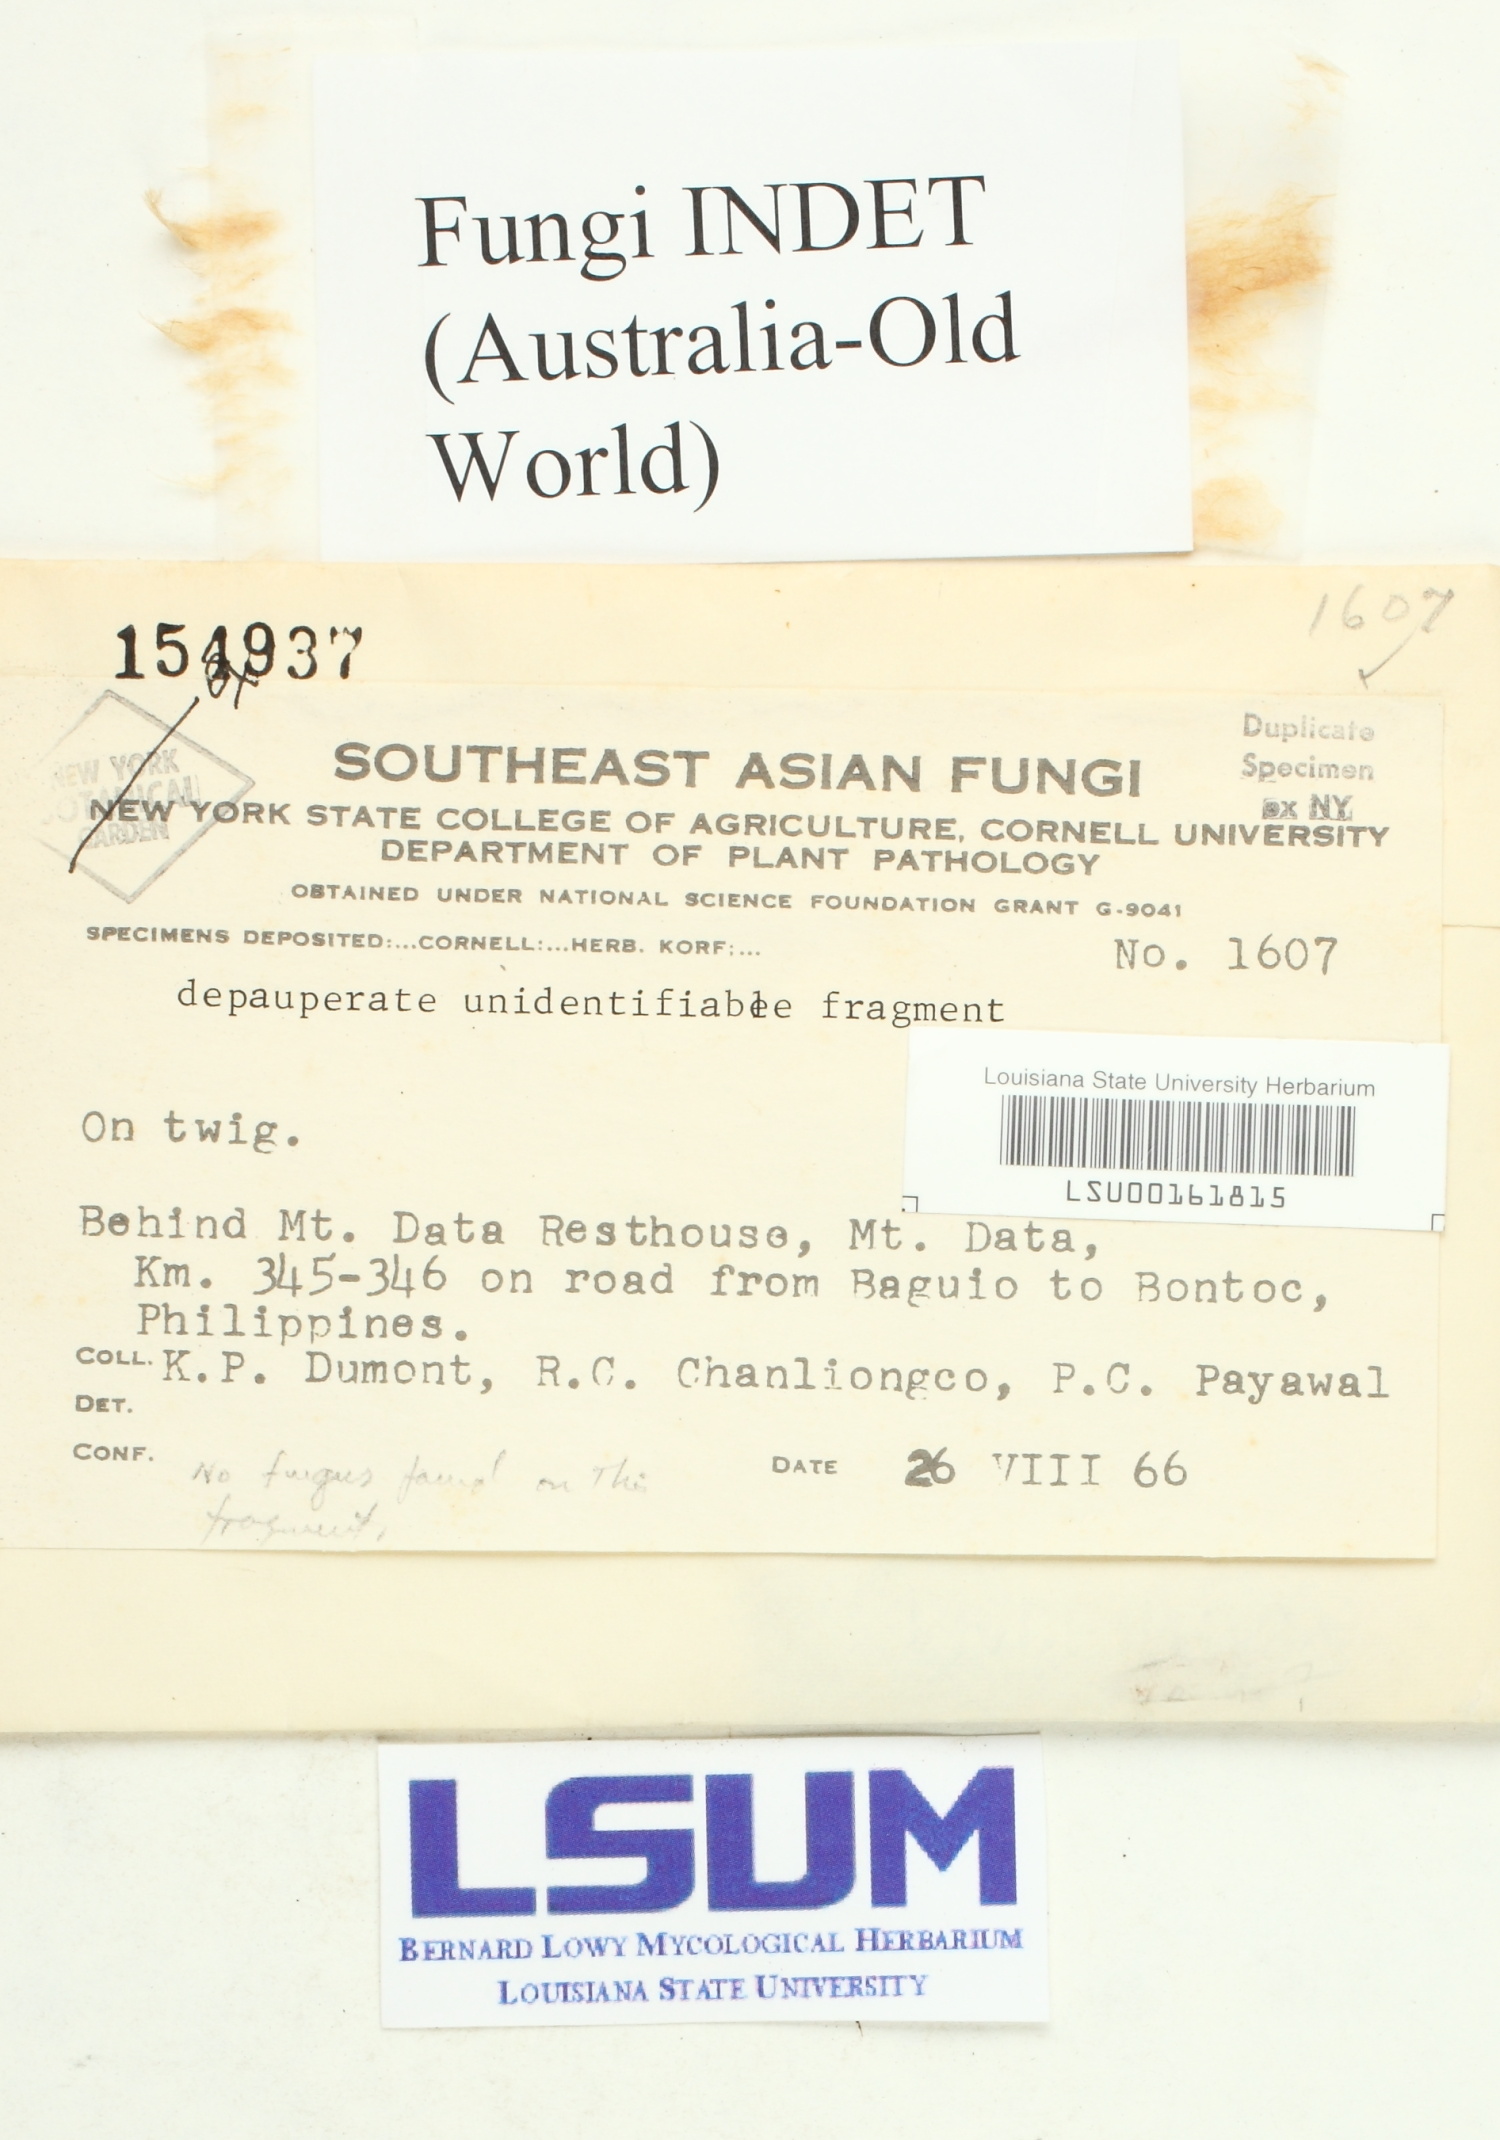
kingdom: Fungi
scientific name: Fungi
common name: Fungi
